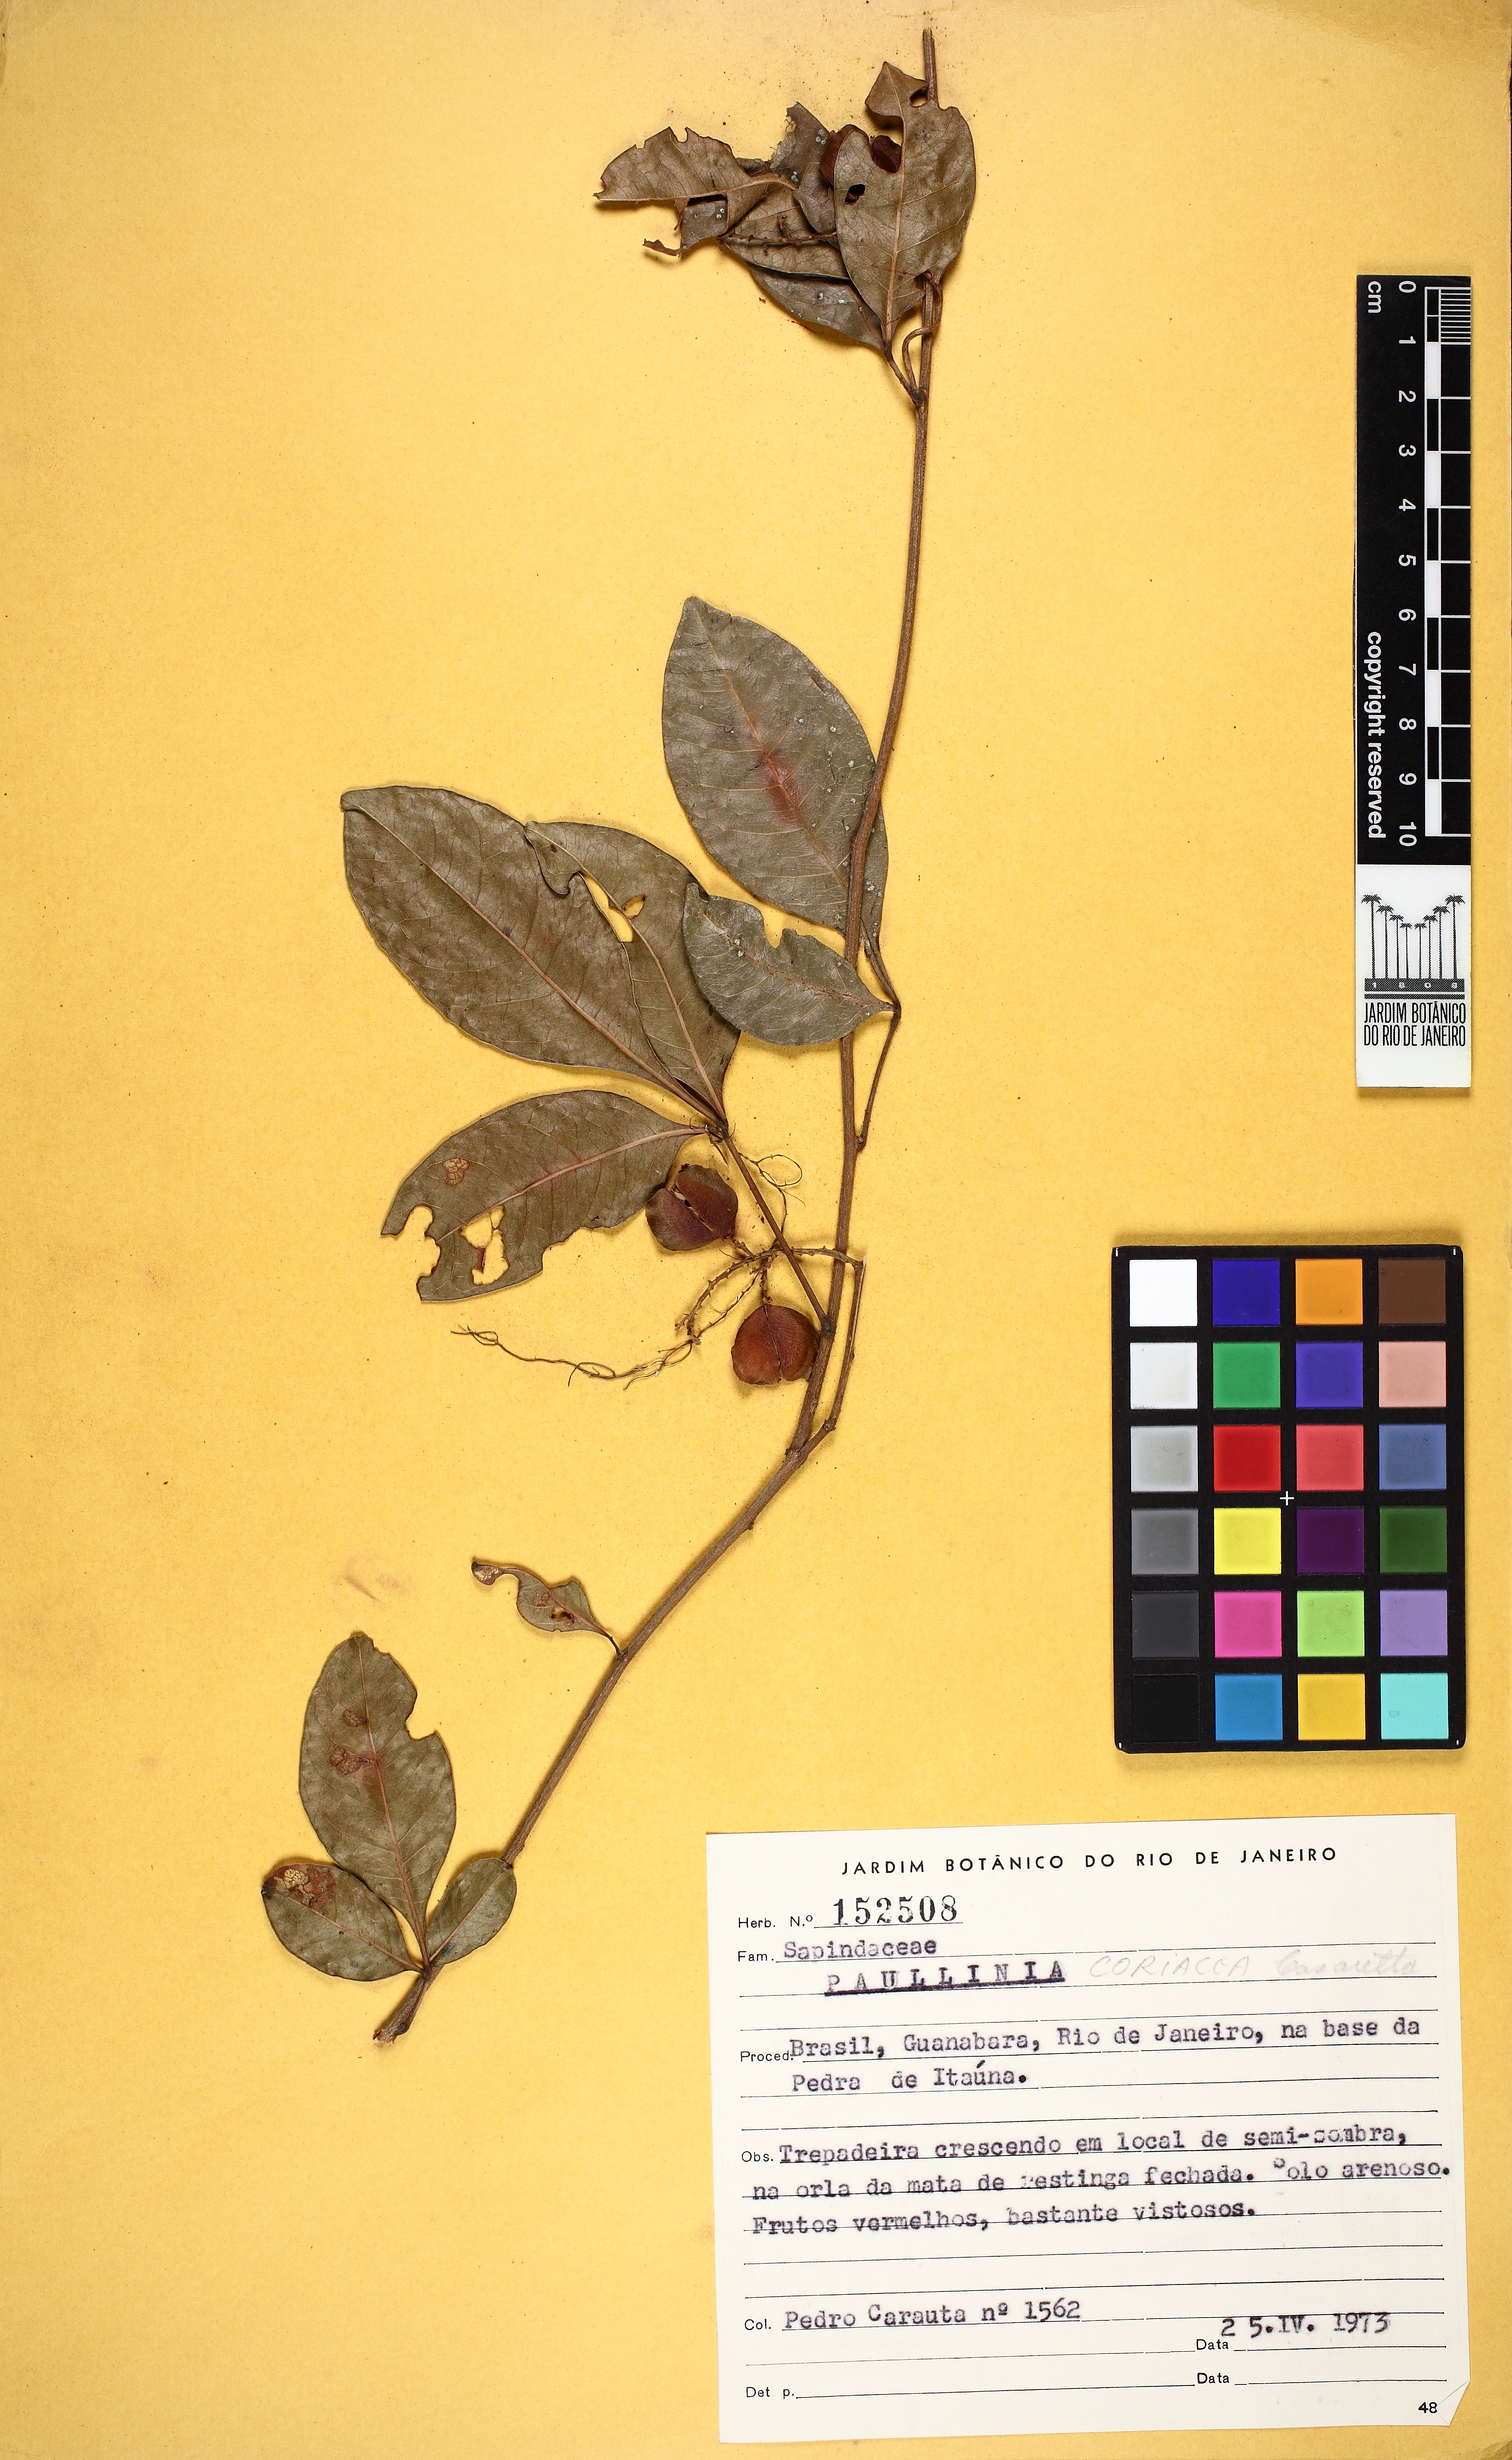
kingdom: Plantae
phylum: Tracheophyta
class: Magnoliopsida
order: Sapindales
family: Sapindaceae
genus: Paullinia
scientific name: Paullinia coriacea
